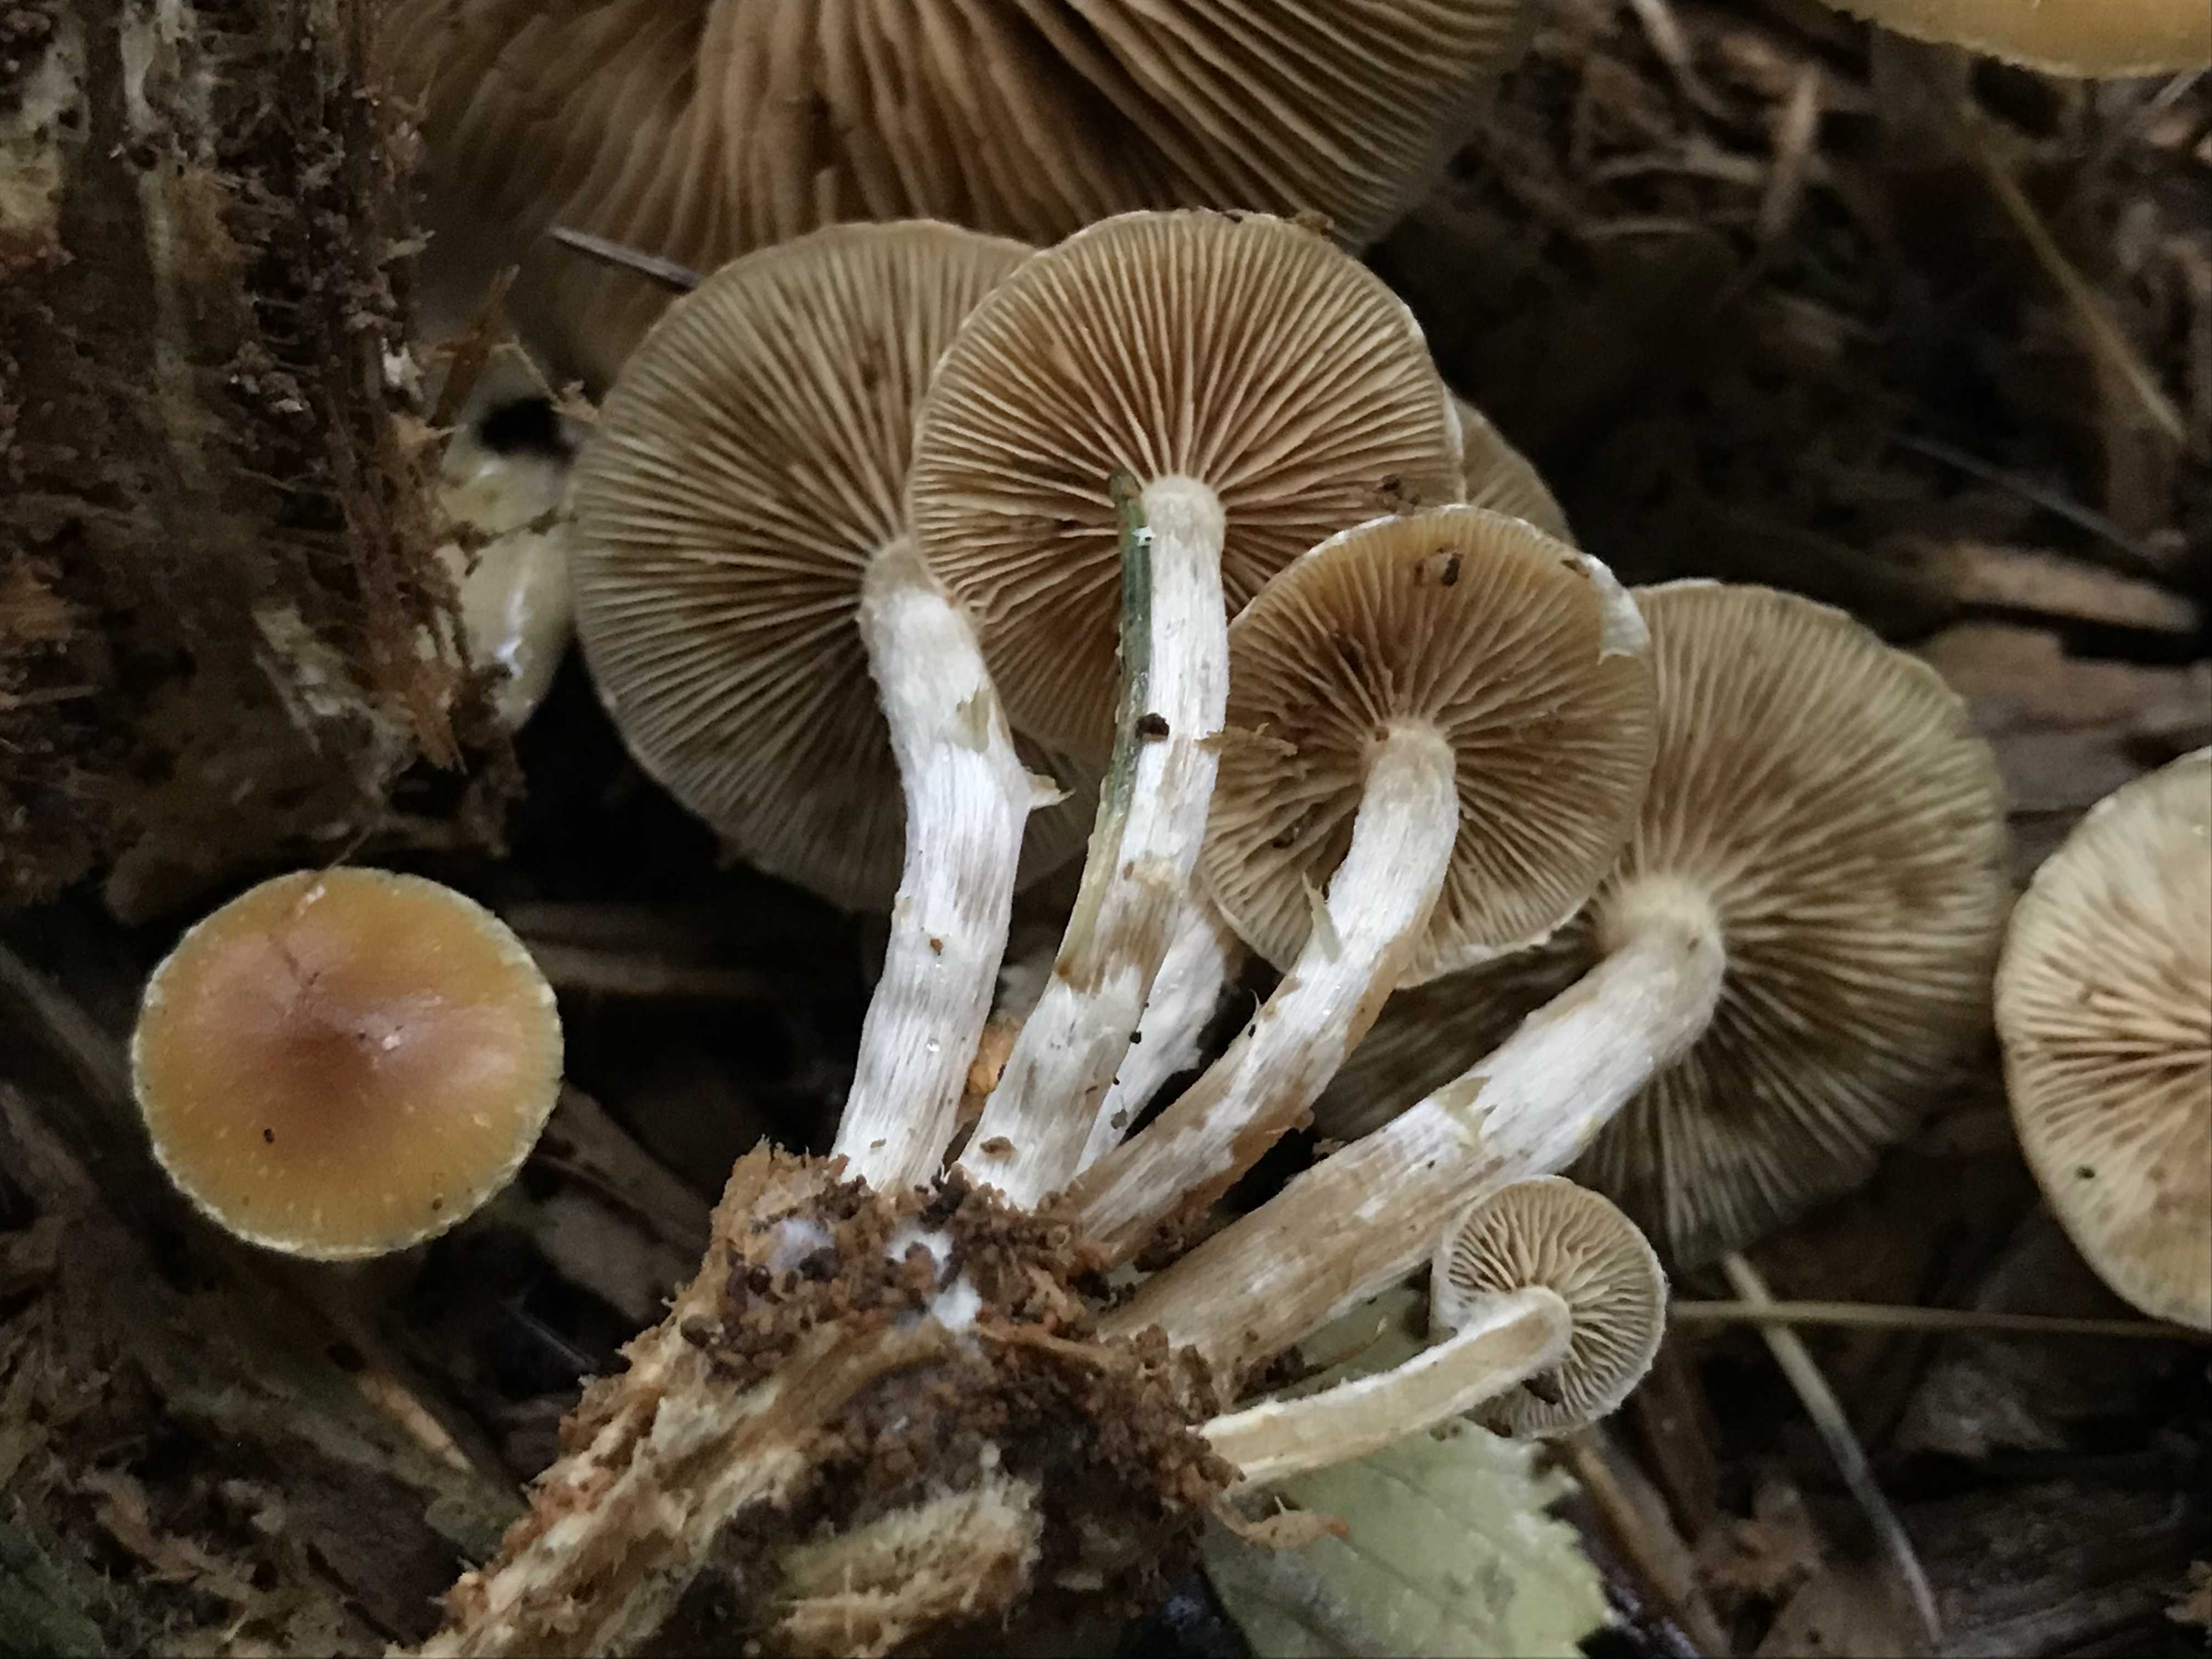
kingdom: Fungi
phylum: Basidiomycota
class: Agaricomycetes
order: Agaricales
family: Hymenogastraceae
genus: Galerina
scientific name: Galerina sideroides
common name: træflis-hjelmhat
